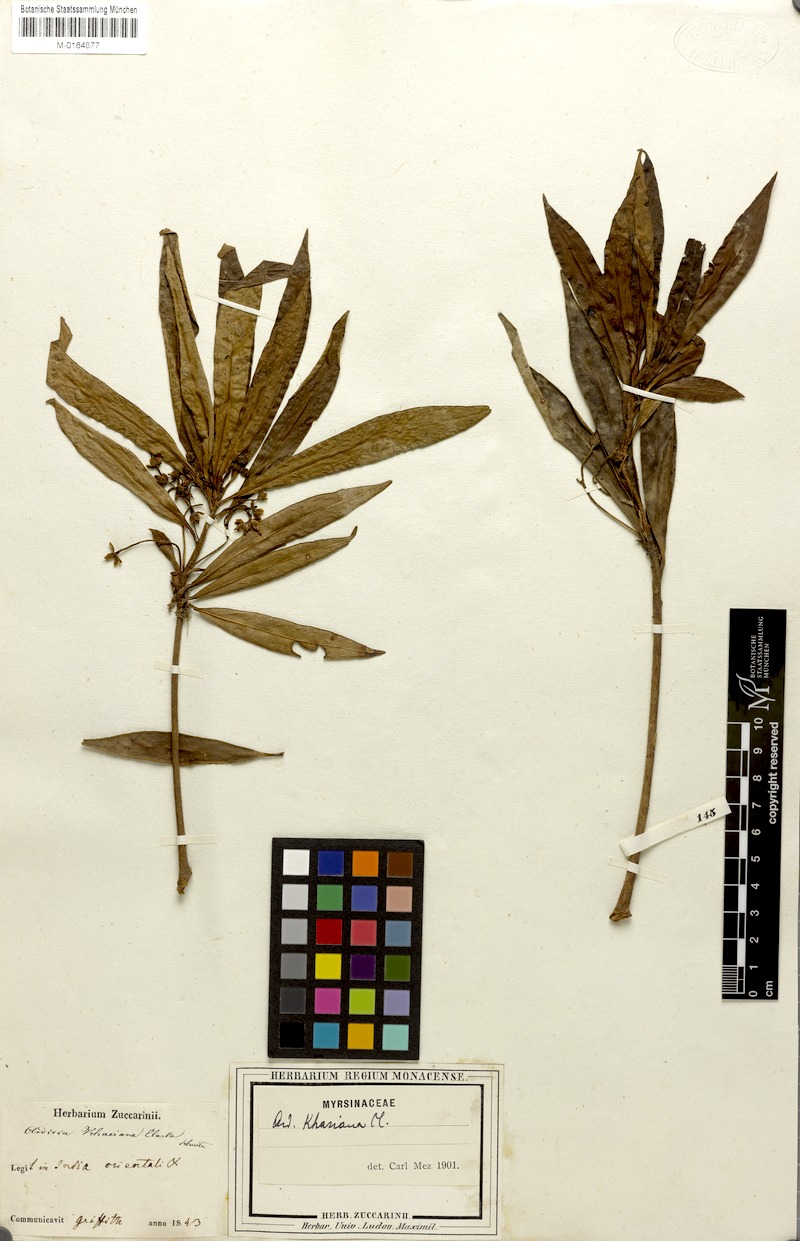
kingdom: Plantae
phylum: Tracheophyta
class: Magnoliopsida
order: Ericales
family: Primulaceae
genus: Ardisia
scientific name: Ardisia khasiana
